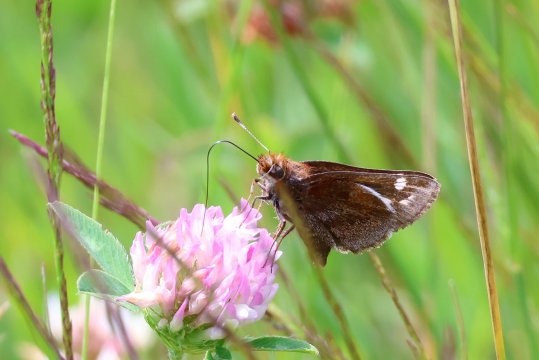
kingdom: Animalia
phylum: Arthropoda
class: Insecta
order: Lepidoptera
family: Hesperiidae
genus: Lon
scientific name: Lon zabulon
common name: Zabulon Skipper
